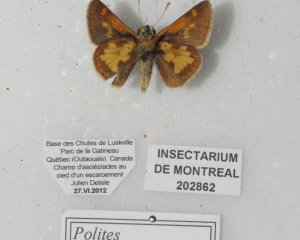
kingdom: Animalia
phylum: Arthropoda
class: Insecta
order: Lepidoptera
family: Hesperiidae
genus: Polites
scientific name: Polites coras
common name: Peck's Skipper
